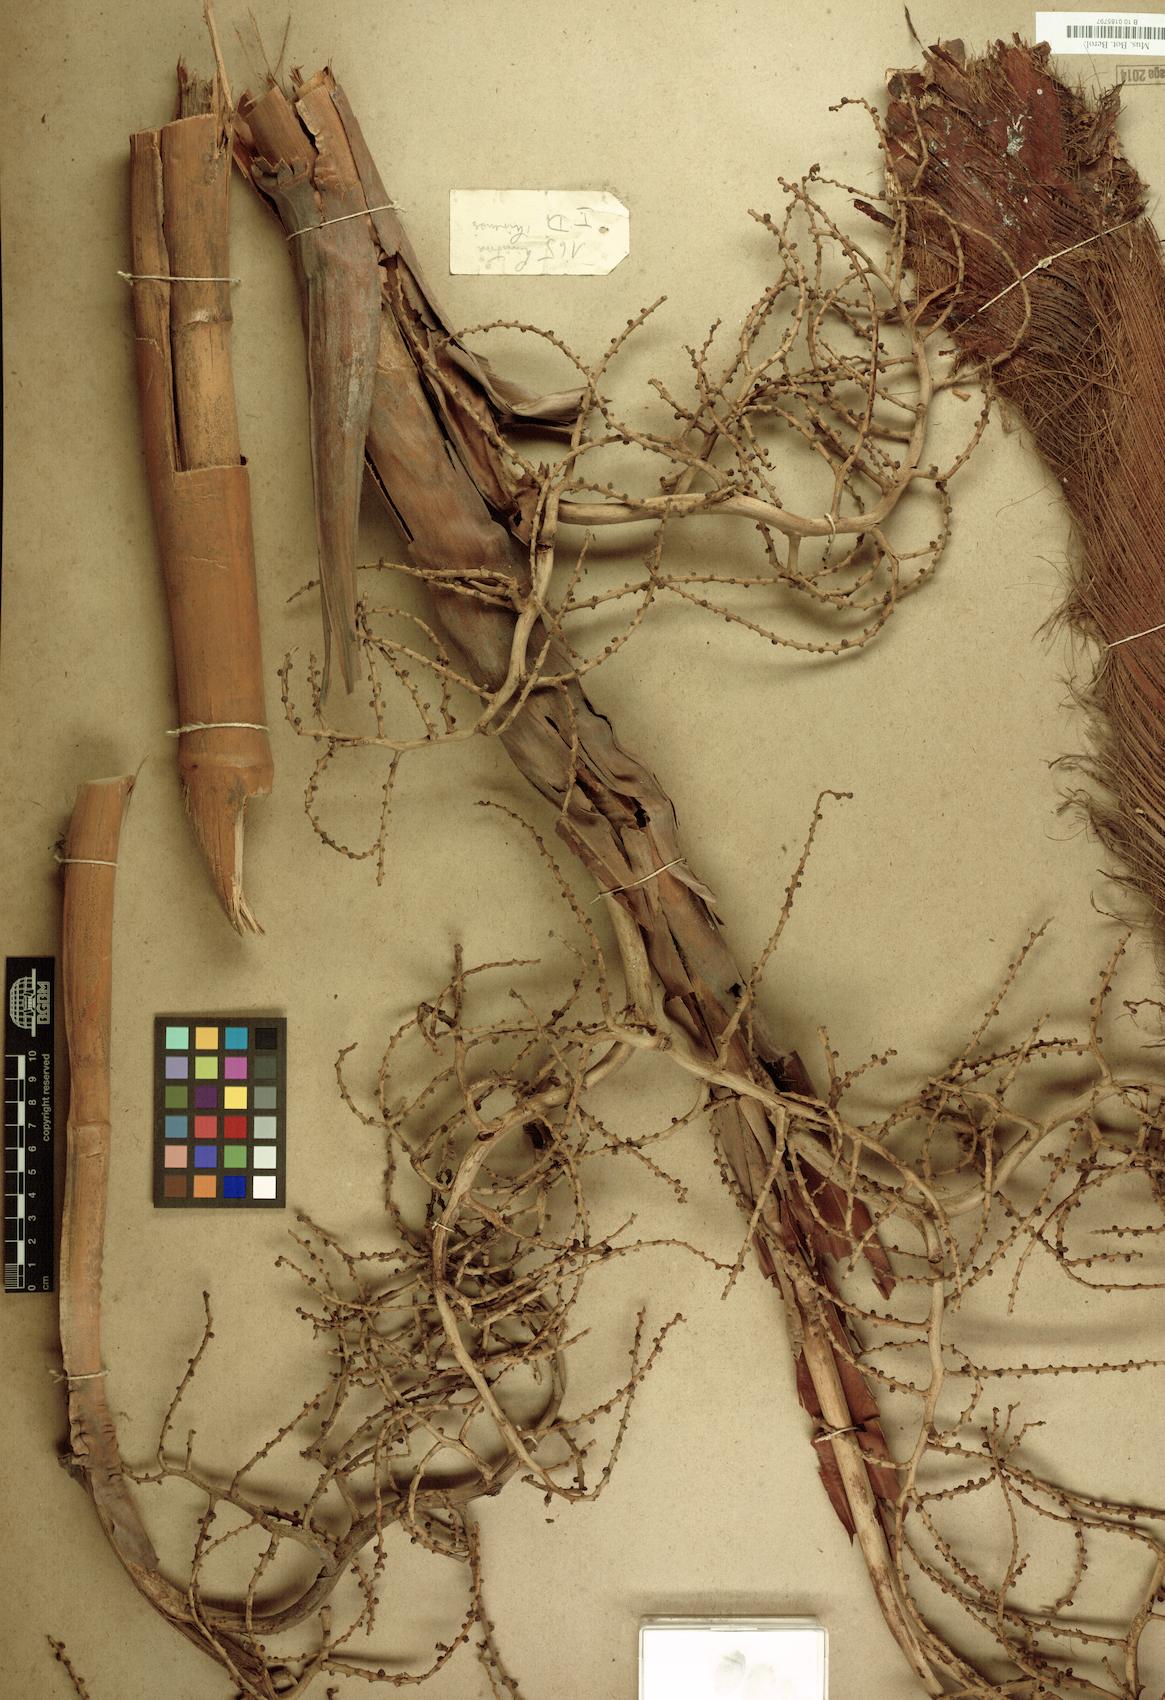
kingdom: Plantae
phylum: Tracheophyta
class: Liliopsida
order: Arecales
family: Arecaceae
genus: Livistona
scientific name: Livistona chinensis
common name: Fountain palm
